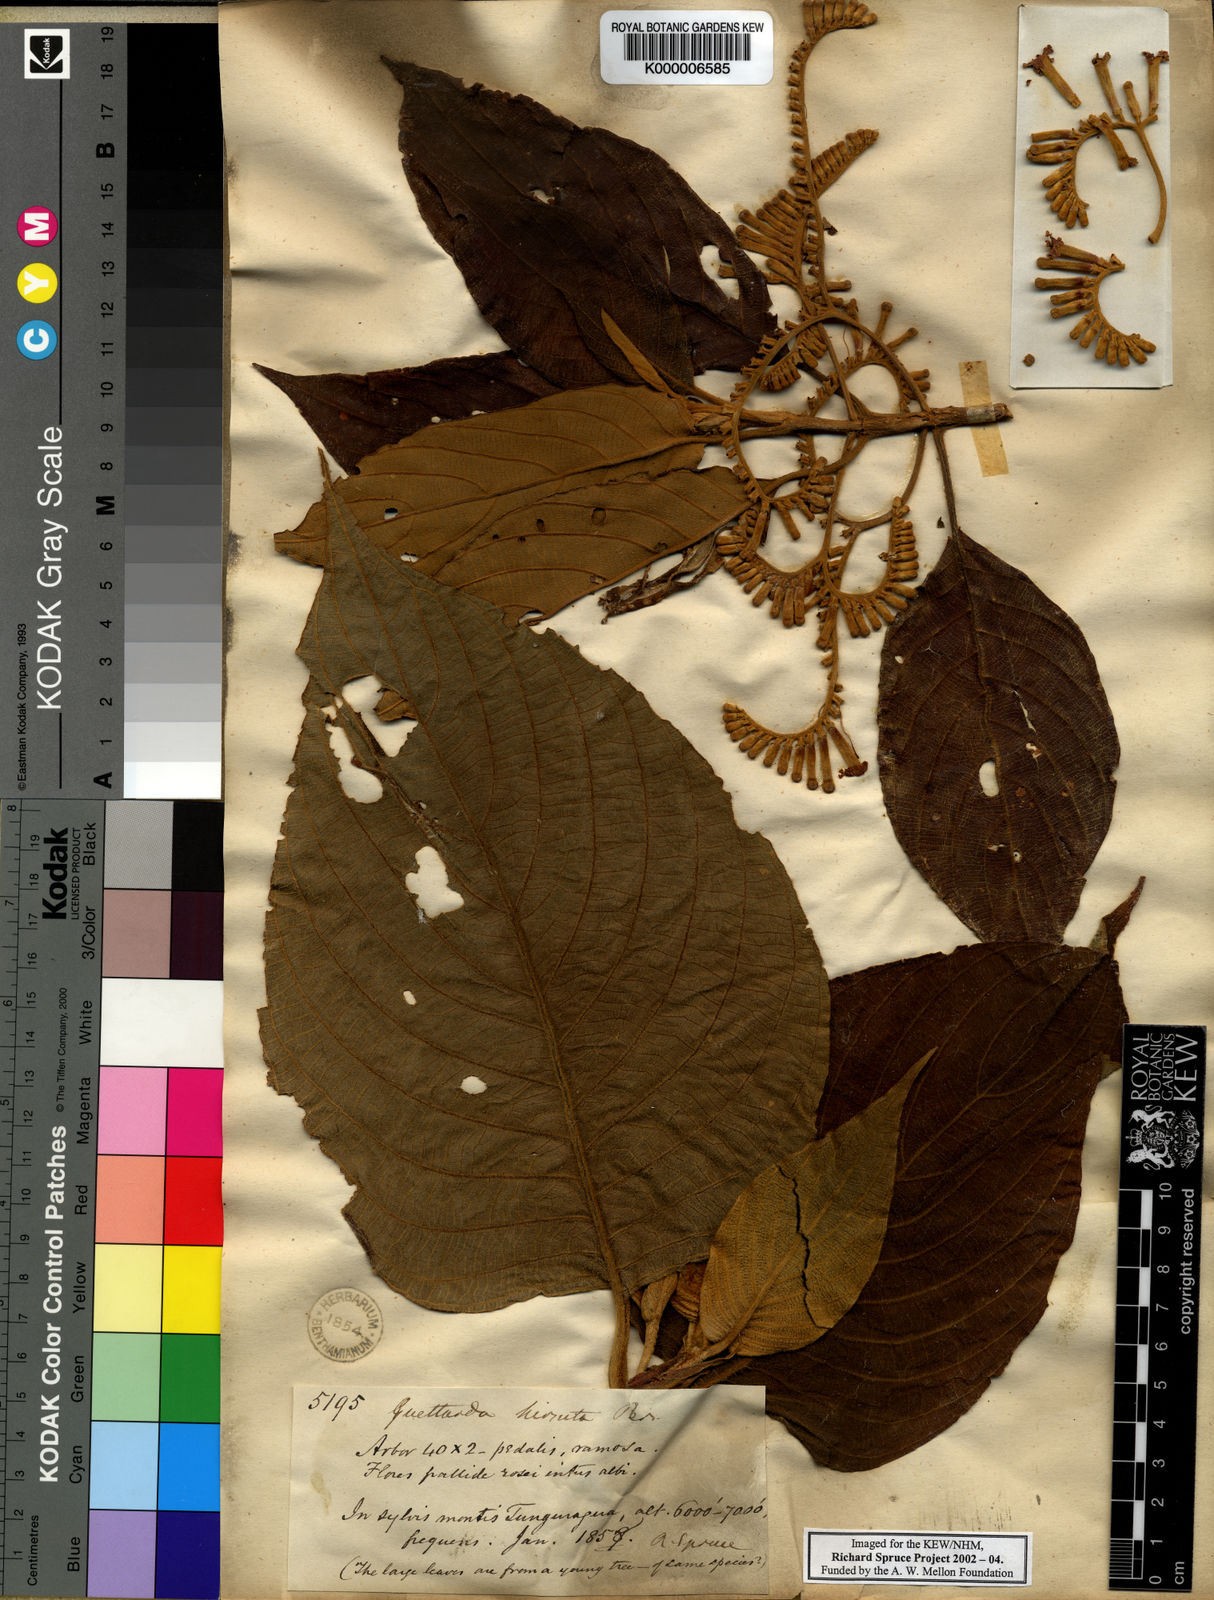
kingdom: Plantae
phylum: Tracheophyta
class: Magnoliopsida
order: Gentianales
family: Rubiaceae
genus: Tournefortiopsis
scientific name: Tournefortiopsis hirsuta
